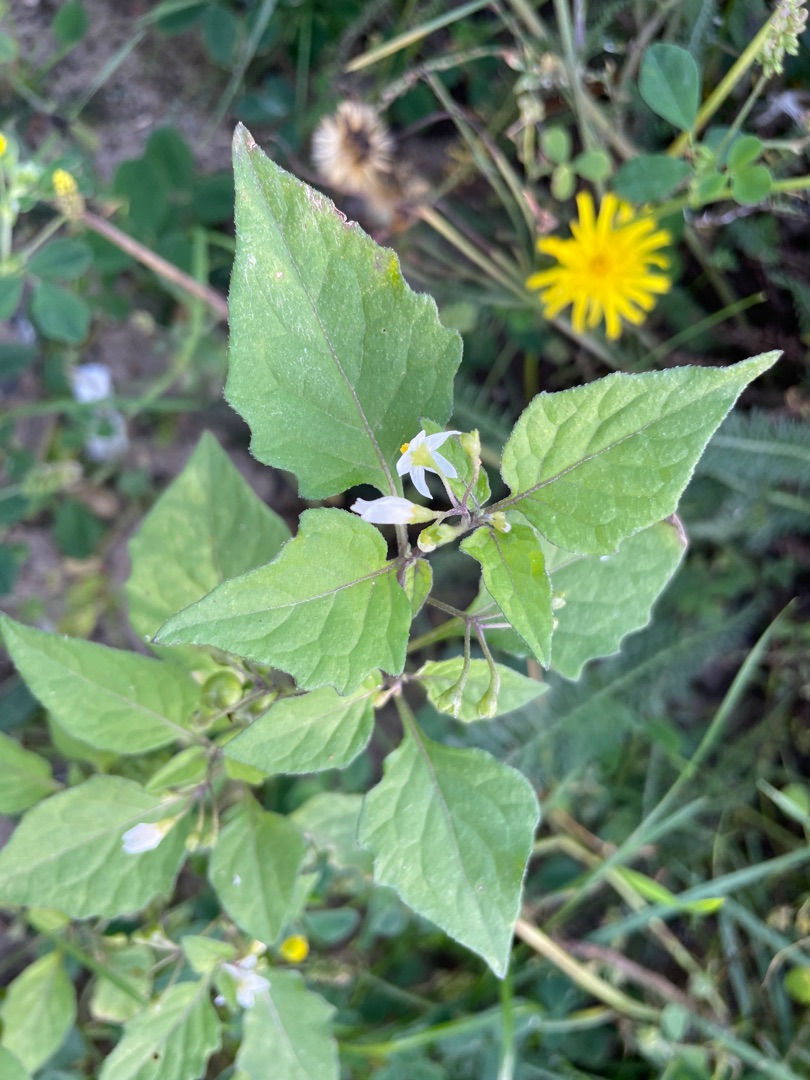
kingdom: Plantae
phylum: Tracheophyta
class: Magnoliopsida
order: Solanales
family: Solanaceae
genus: Solanum
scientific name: Solanum nigrum
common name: Sort natskygge
